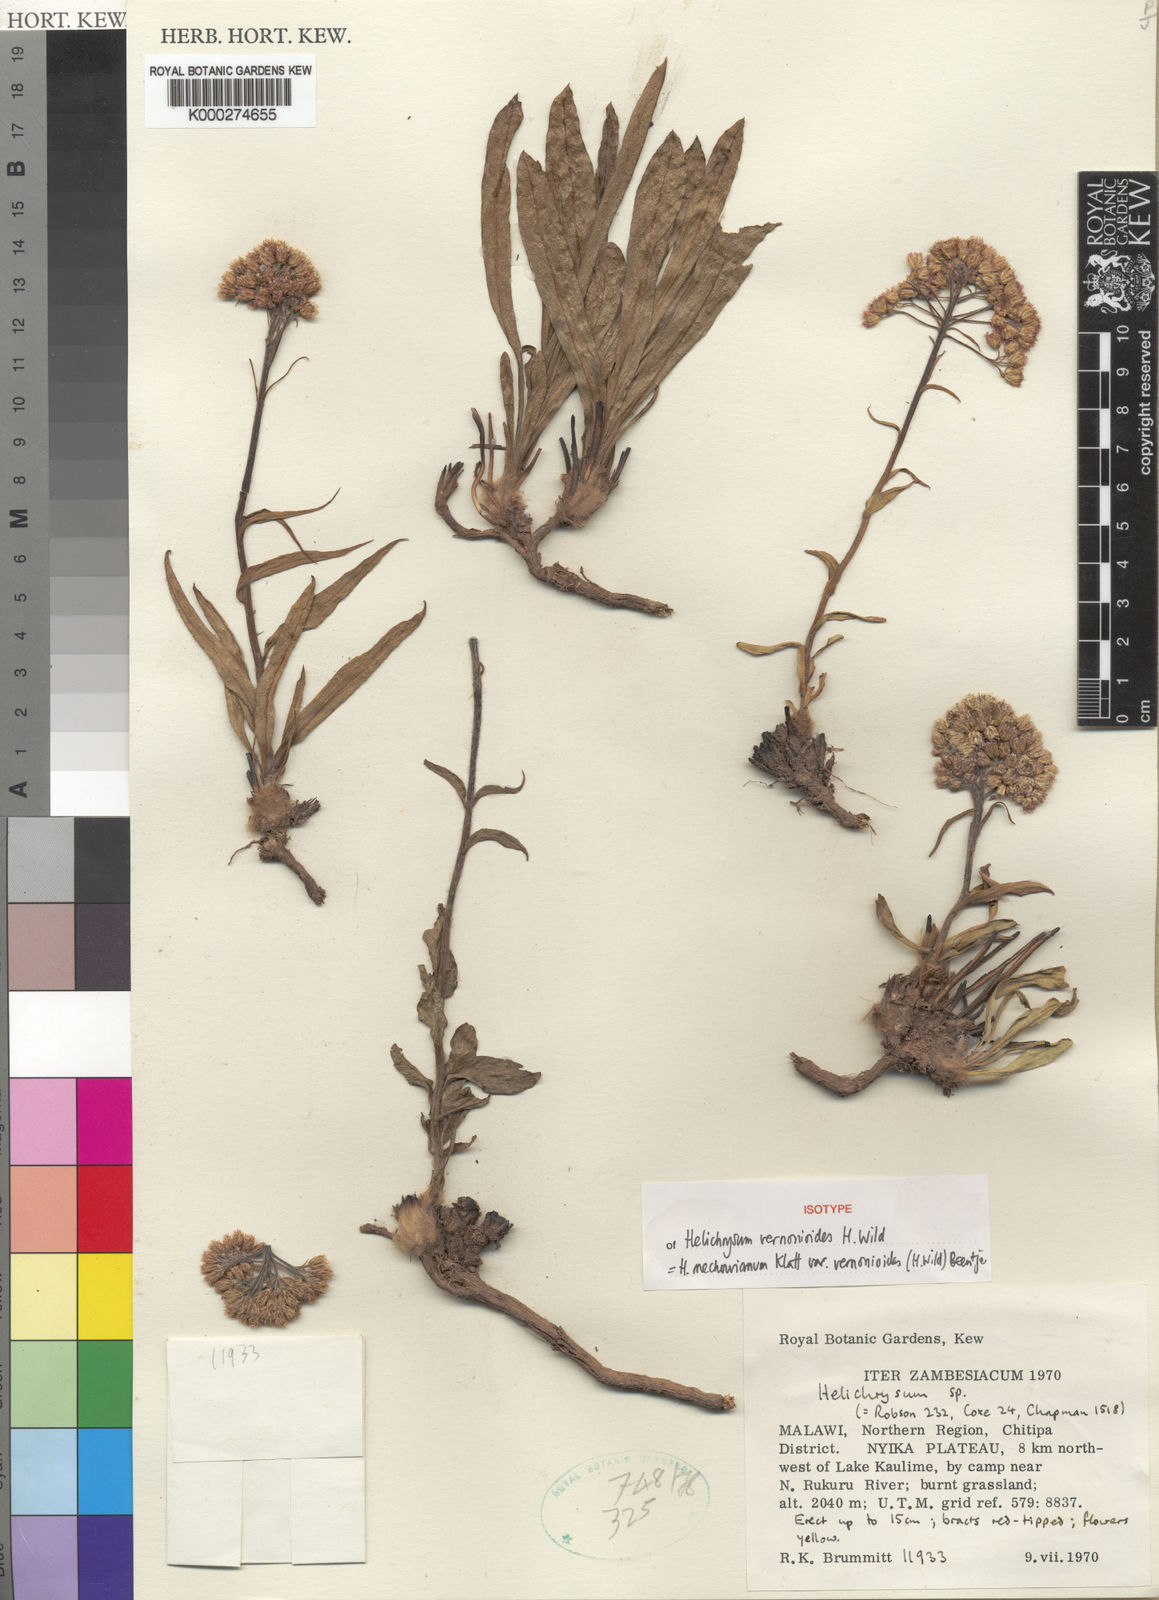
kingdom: Plantae
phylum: Tracheophyta
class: Magnoliopsida
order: Asterales
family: Asteraceae
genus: Helichrysum
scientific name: Helichrysum mechowianum
